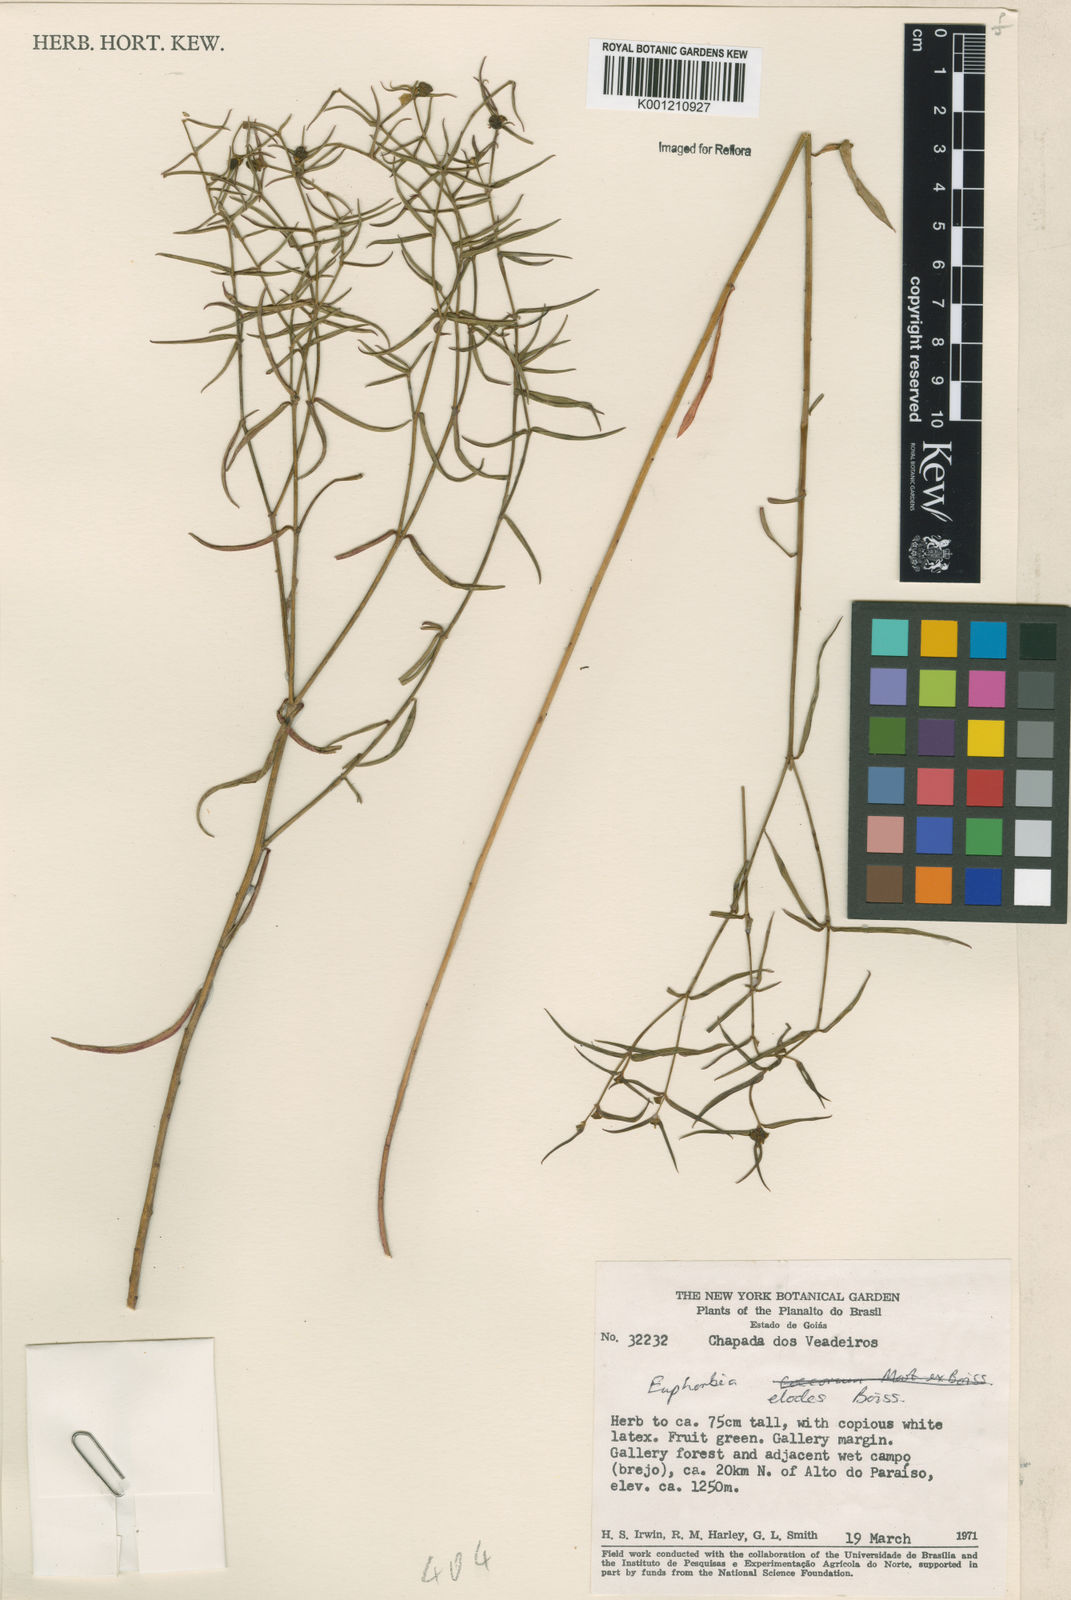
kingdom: Plantae
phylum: Tracheophyta
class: Magnoliopsida
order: Malpighiales
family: Euphorbiaceae
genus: Euphorbia
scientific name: Euphorbia elodes
